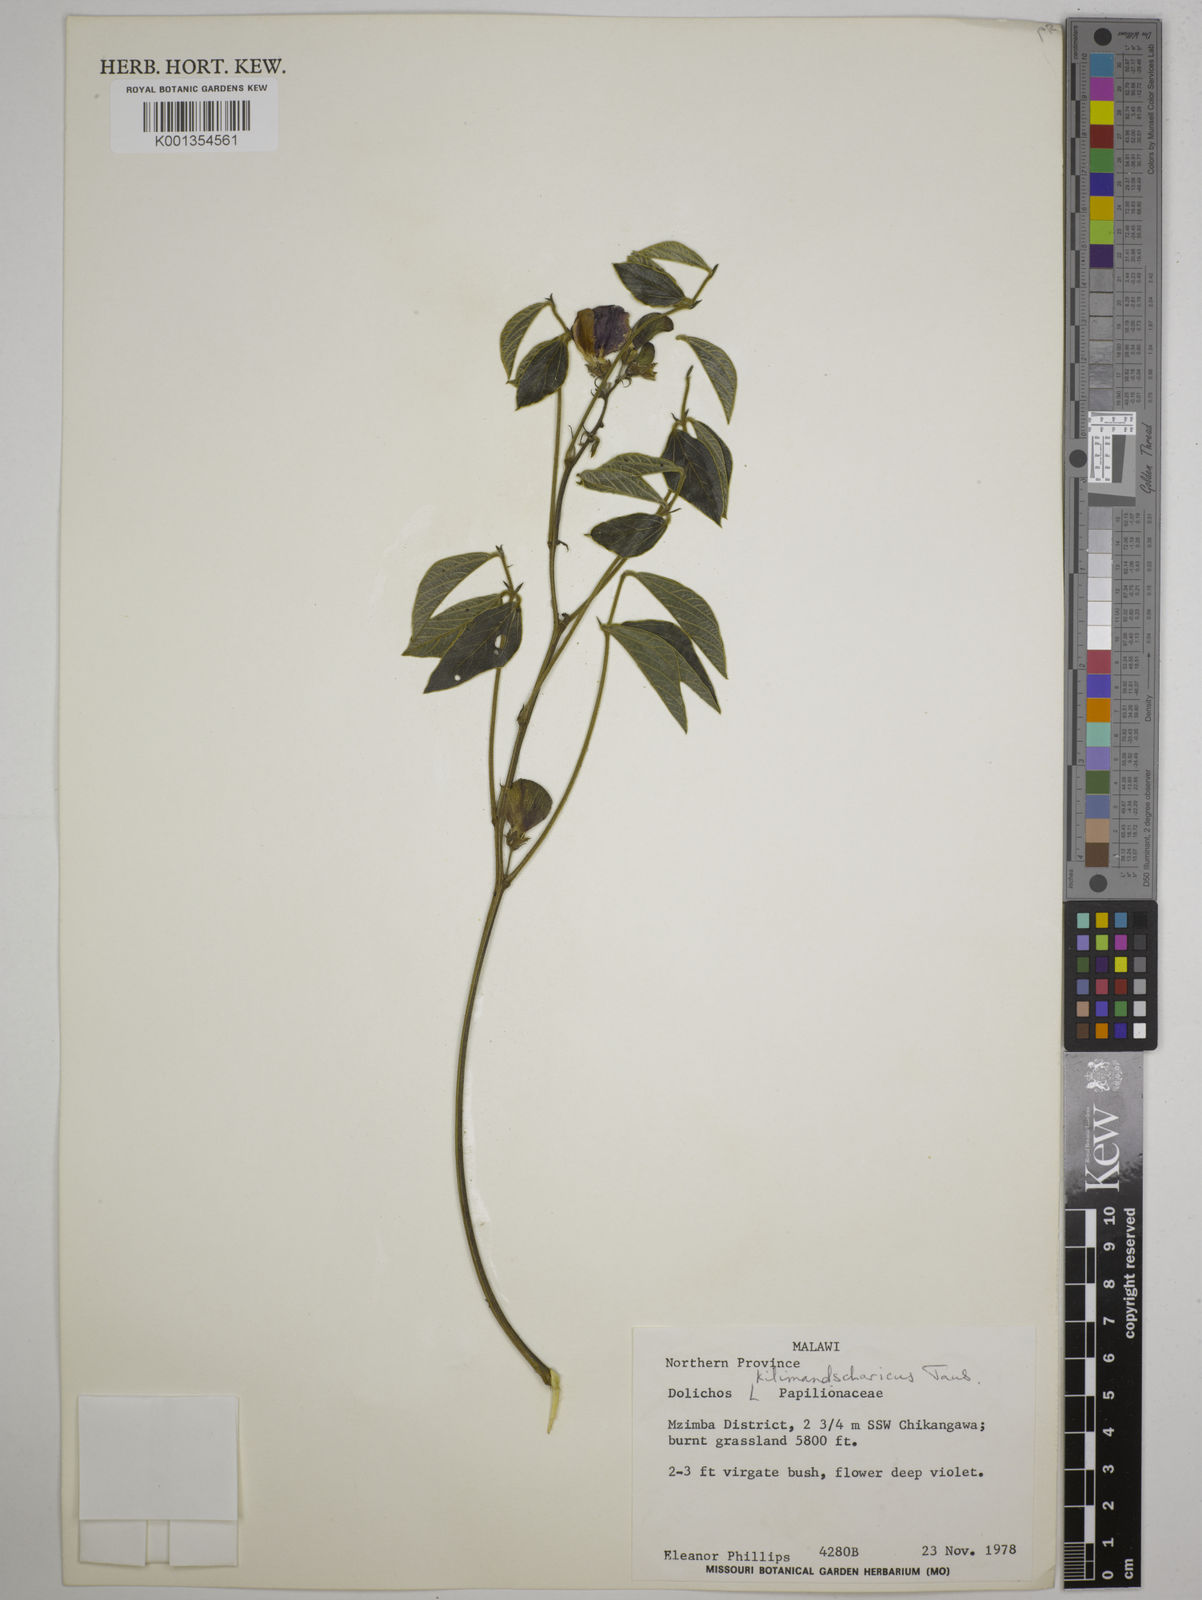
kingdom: Plantae
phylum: Tracheophyta
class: Magnoliopsida
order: Fabales
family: Fabaceae
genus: Dolichos
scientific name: Dolichos kilimandscharicus
